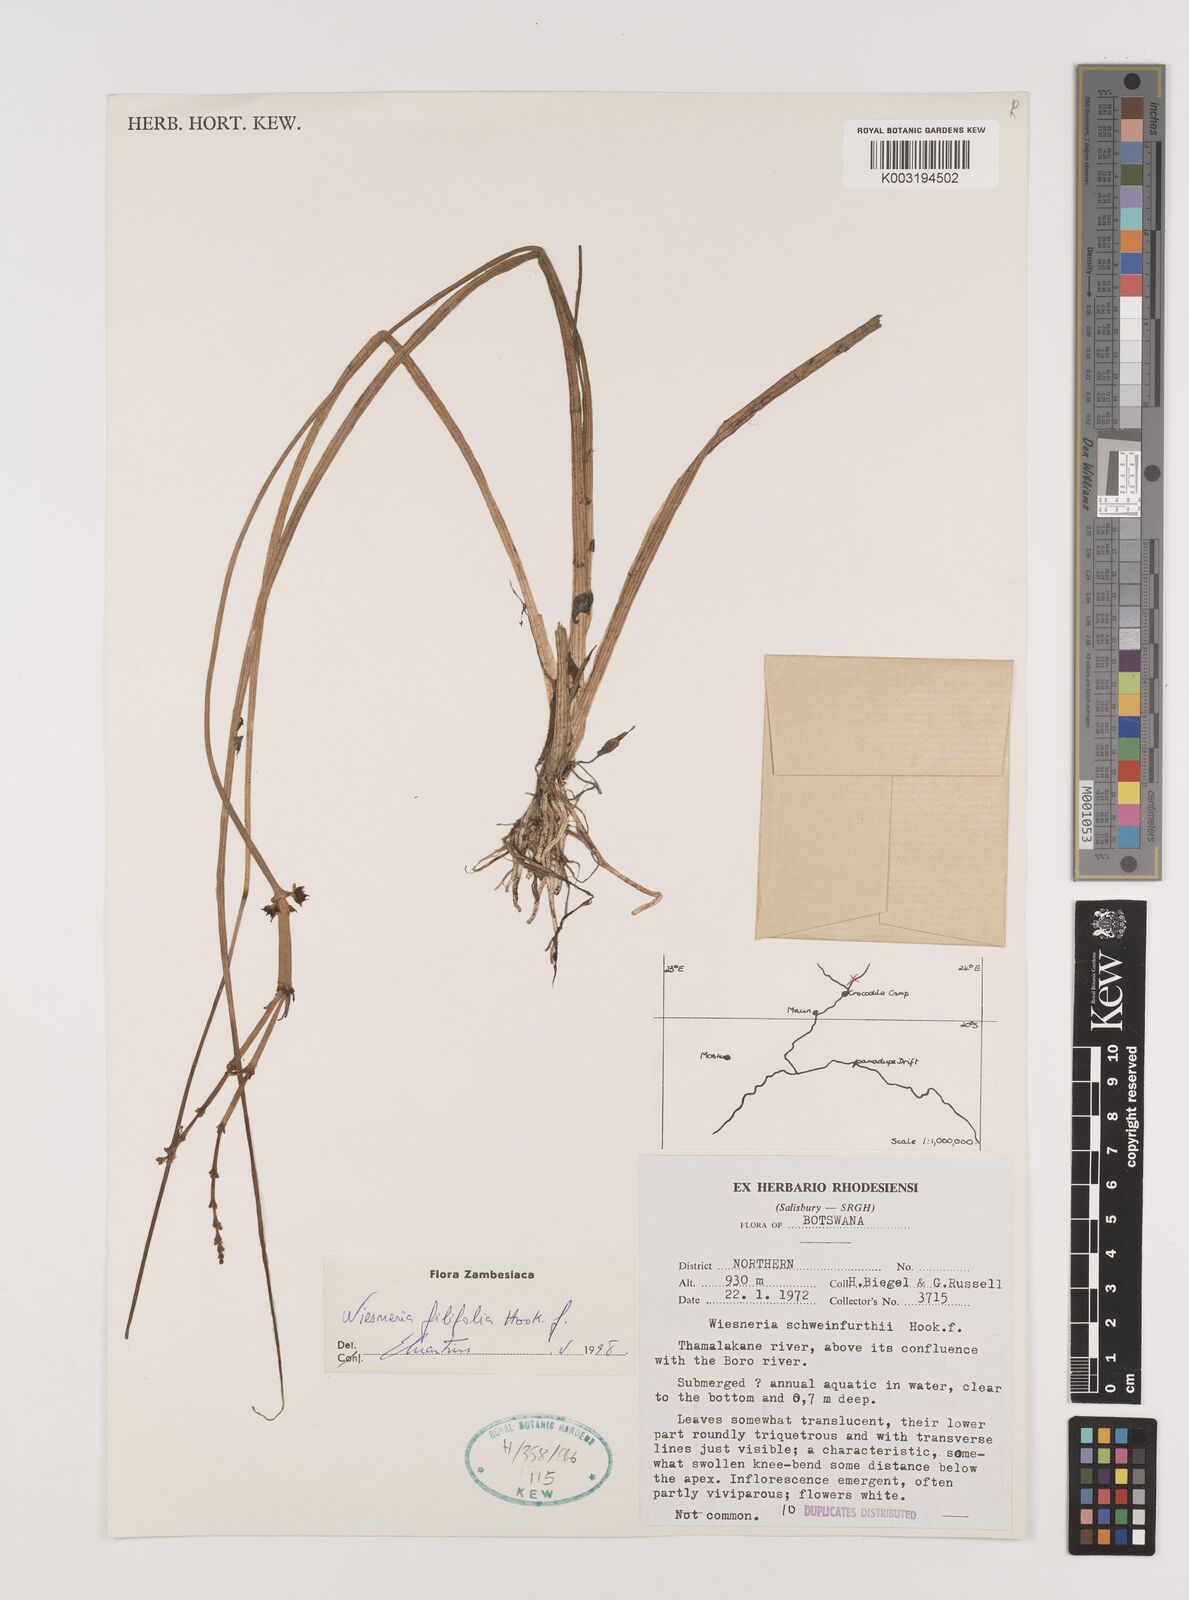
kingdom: Plantae
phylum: Tracheophyta
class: Liliopsida
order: Alismatales
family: Alismataceae
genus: Wiesneria
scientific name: Wiesneria filifolia
